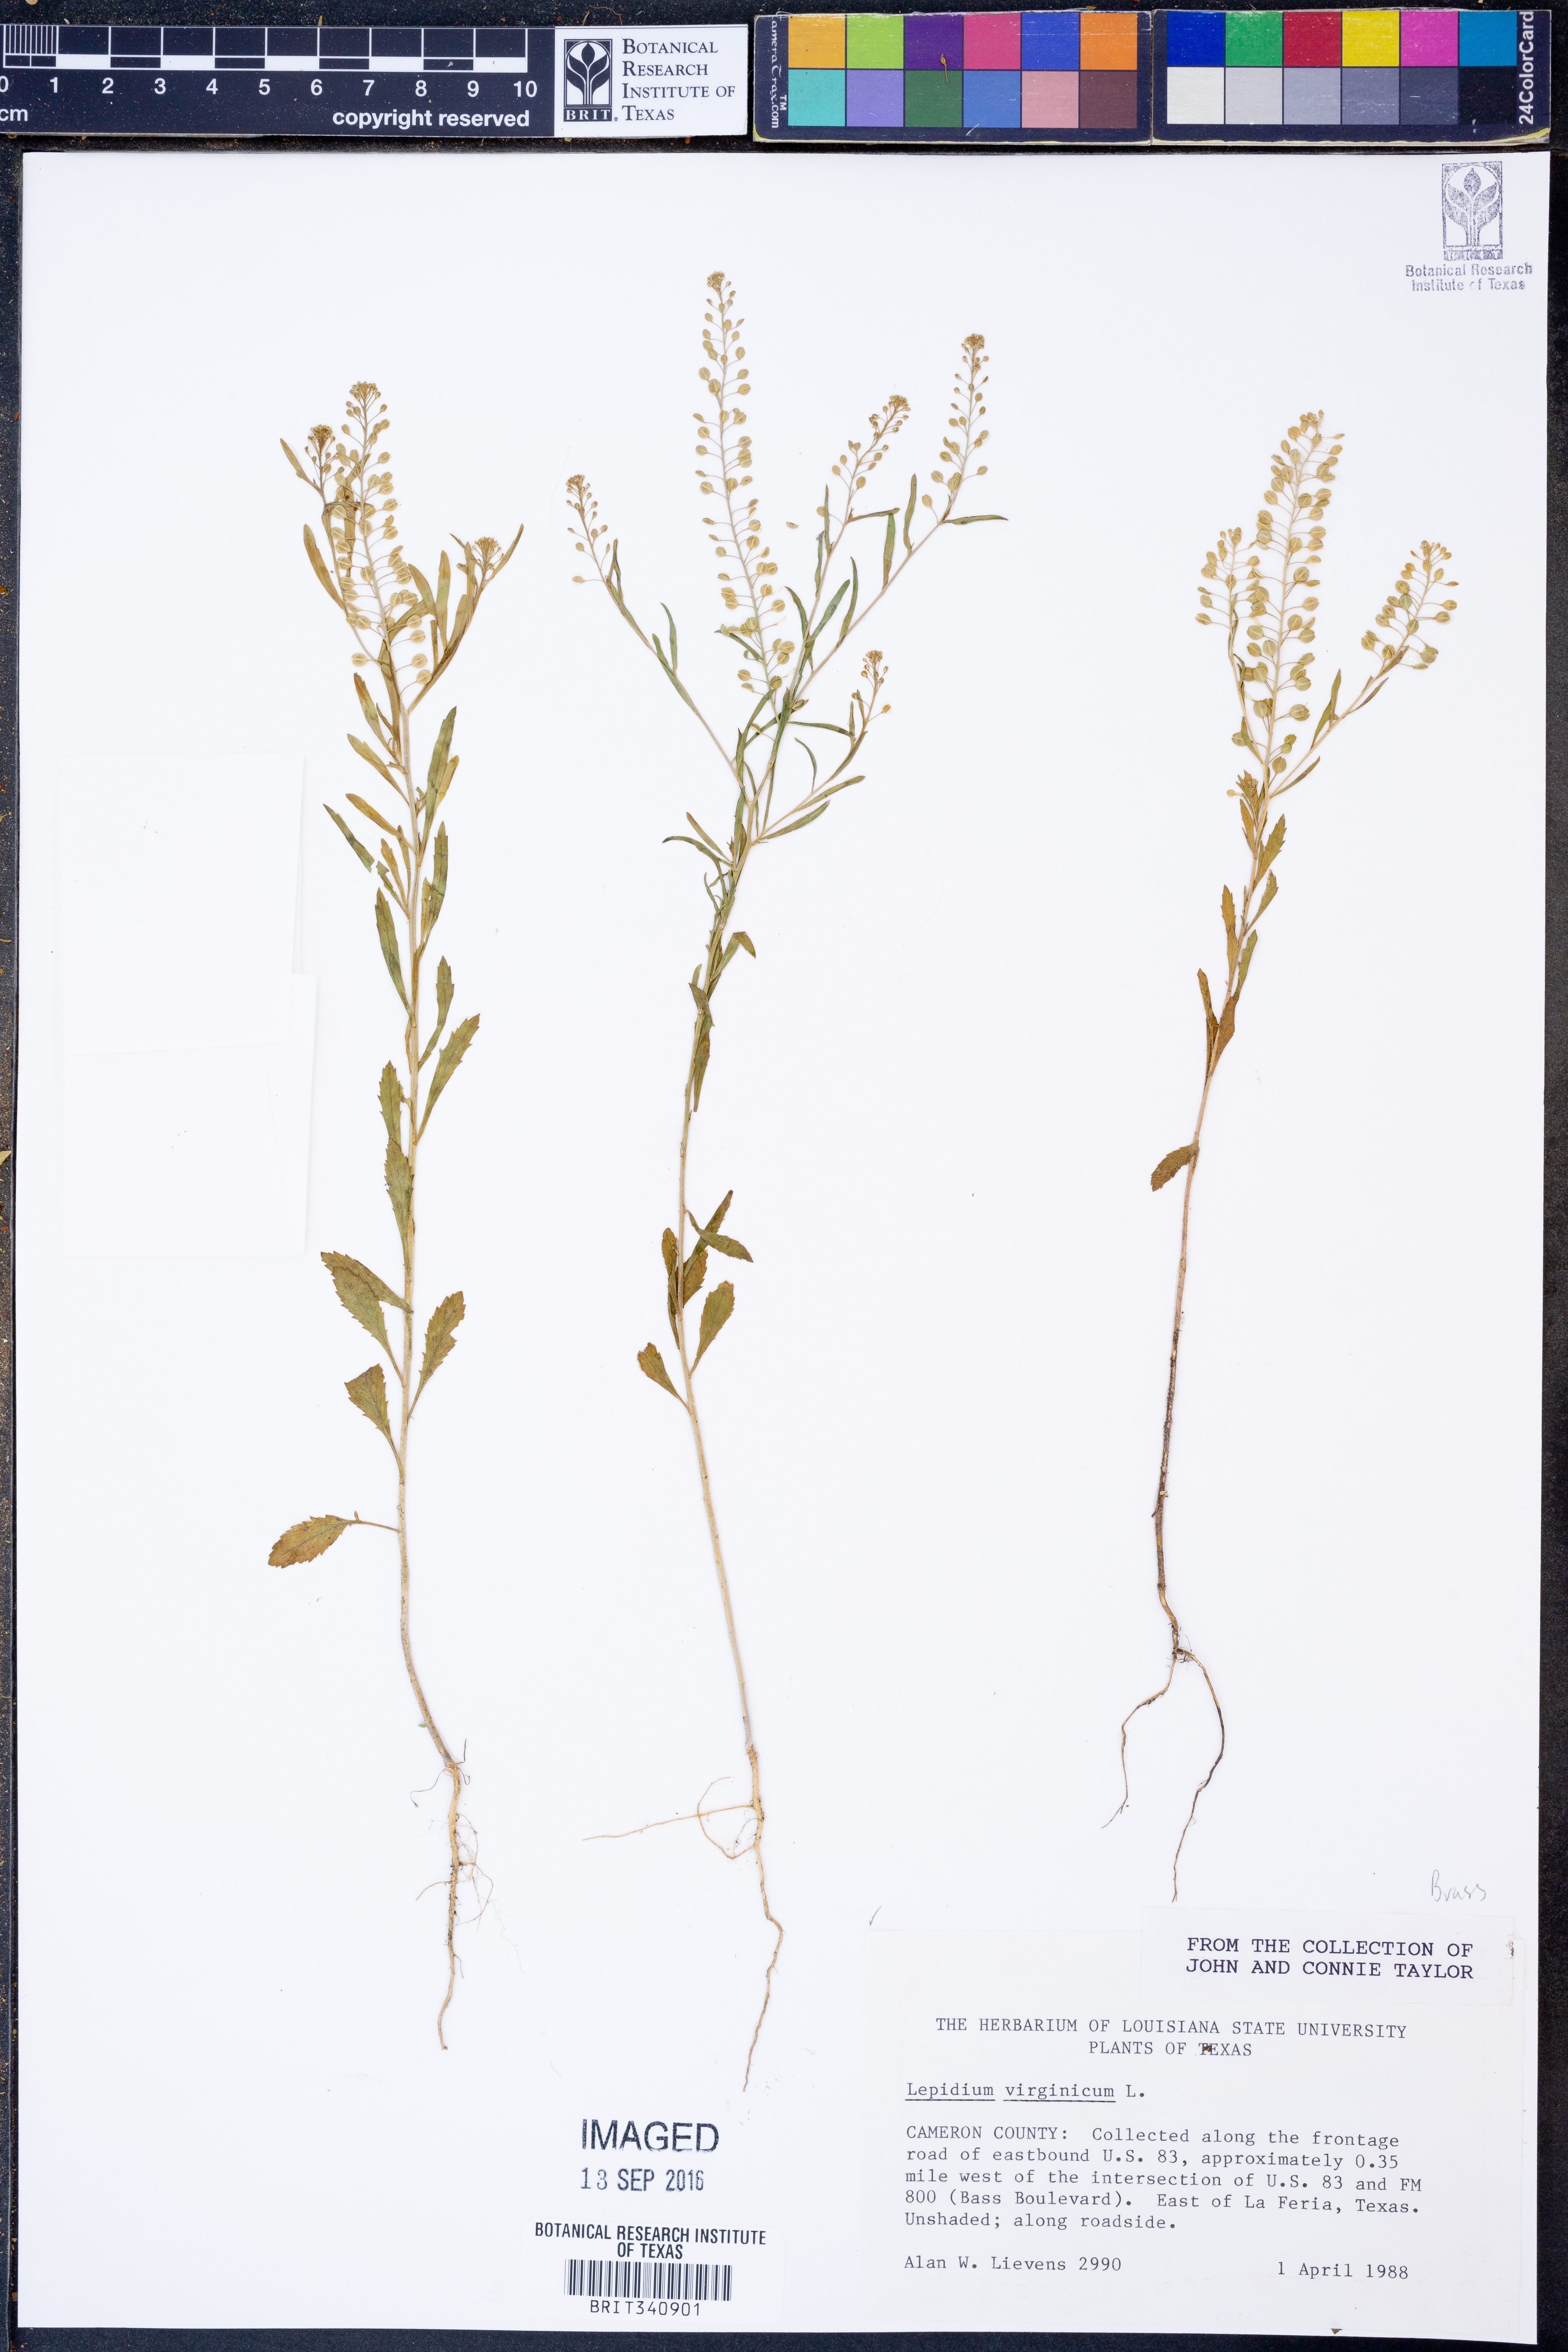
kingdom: Plantae
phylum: Tracheophyta
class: Magnoliopsida
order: Brassicales
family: Brassicaceae
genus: Lepidium
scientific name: Lepidium virginicum
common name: Least pepperwort
